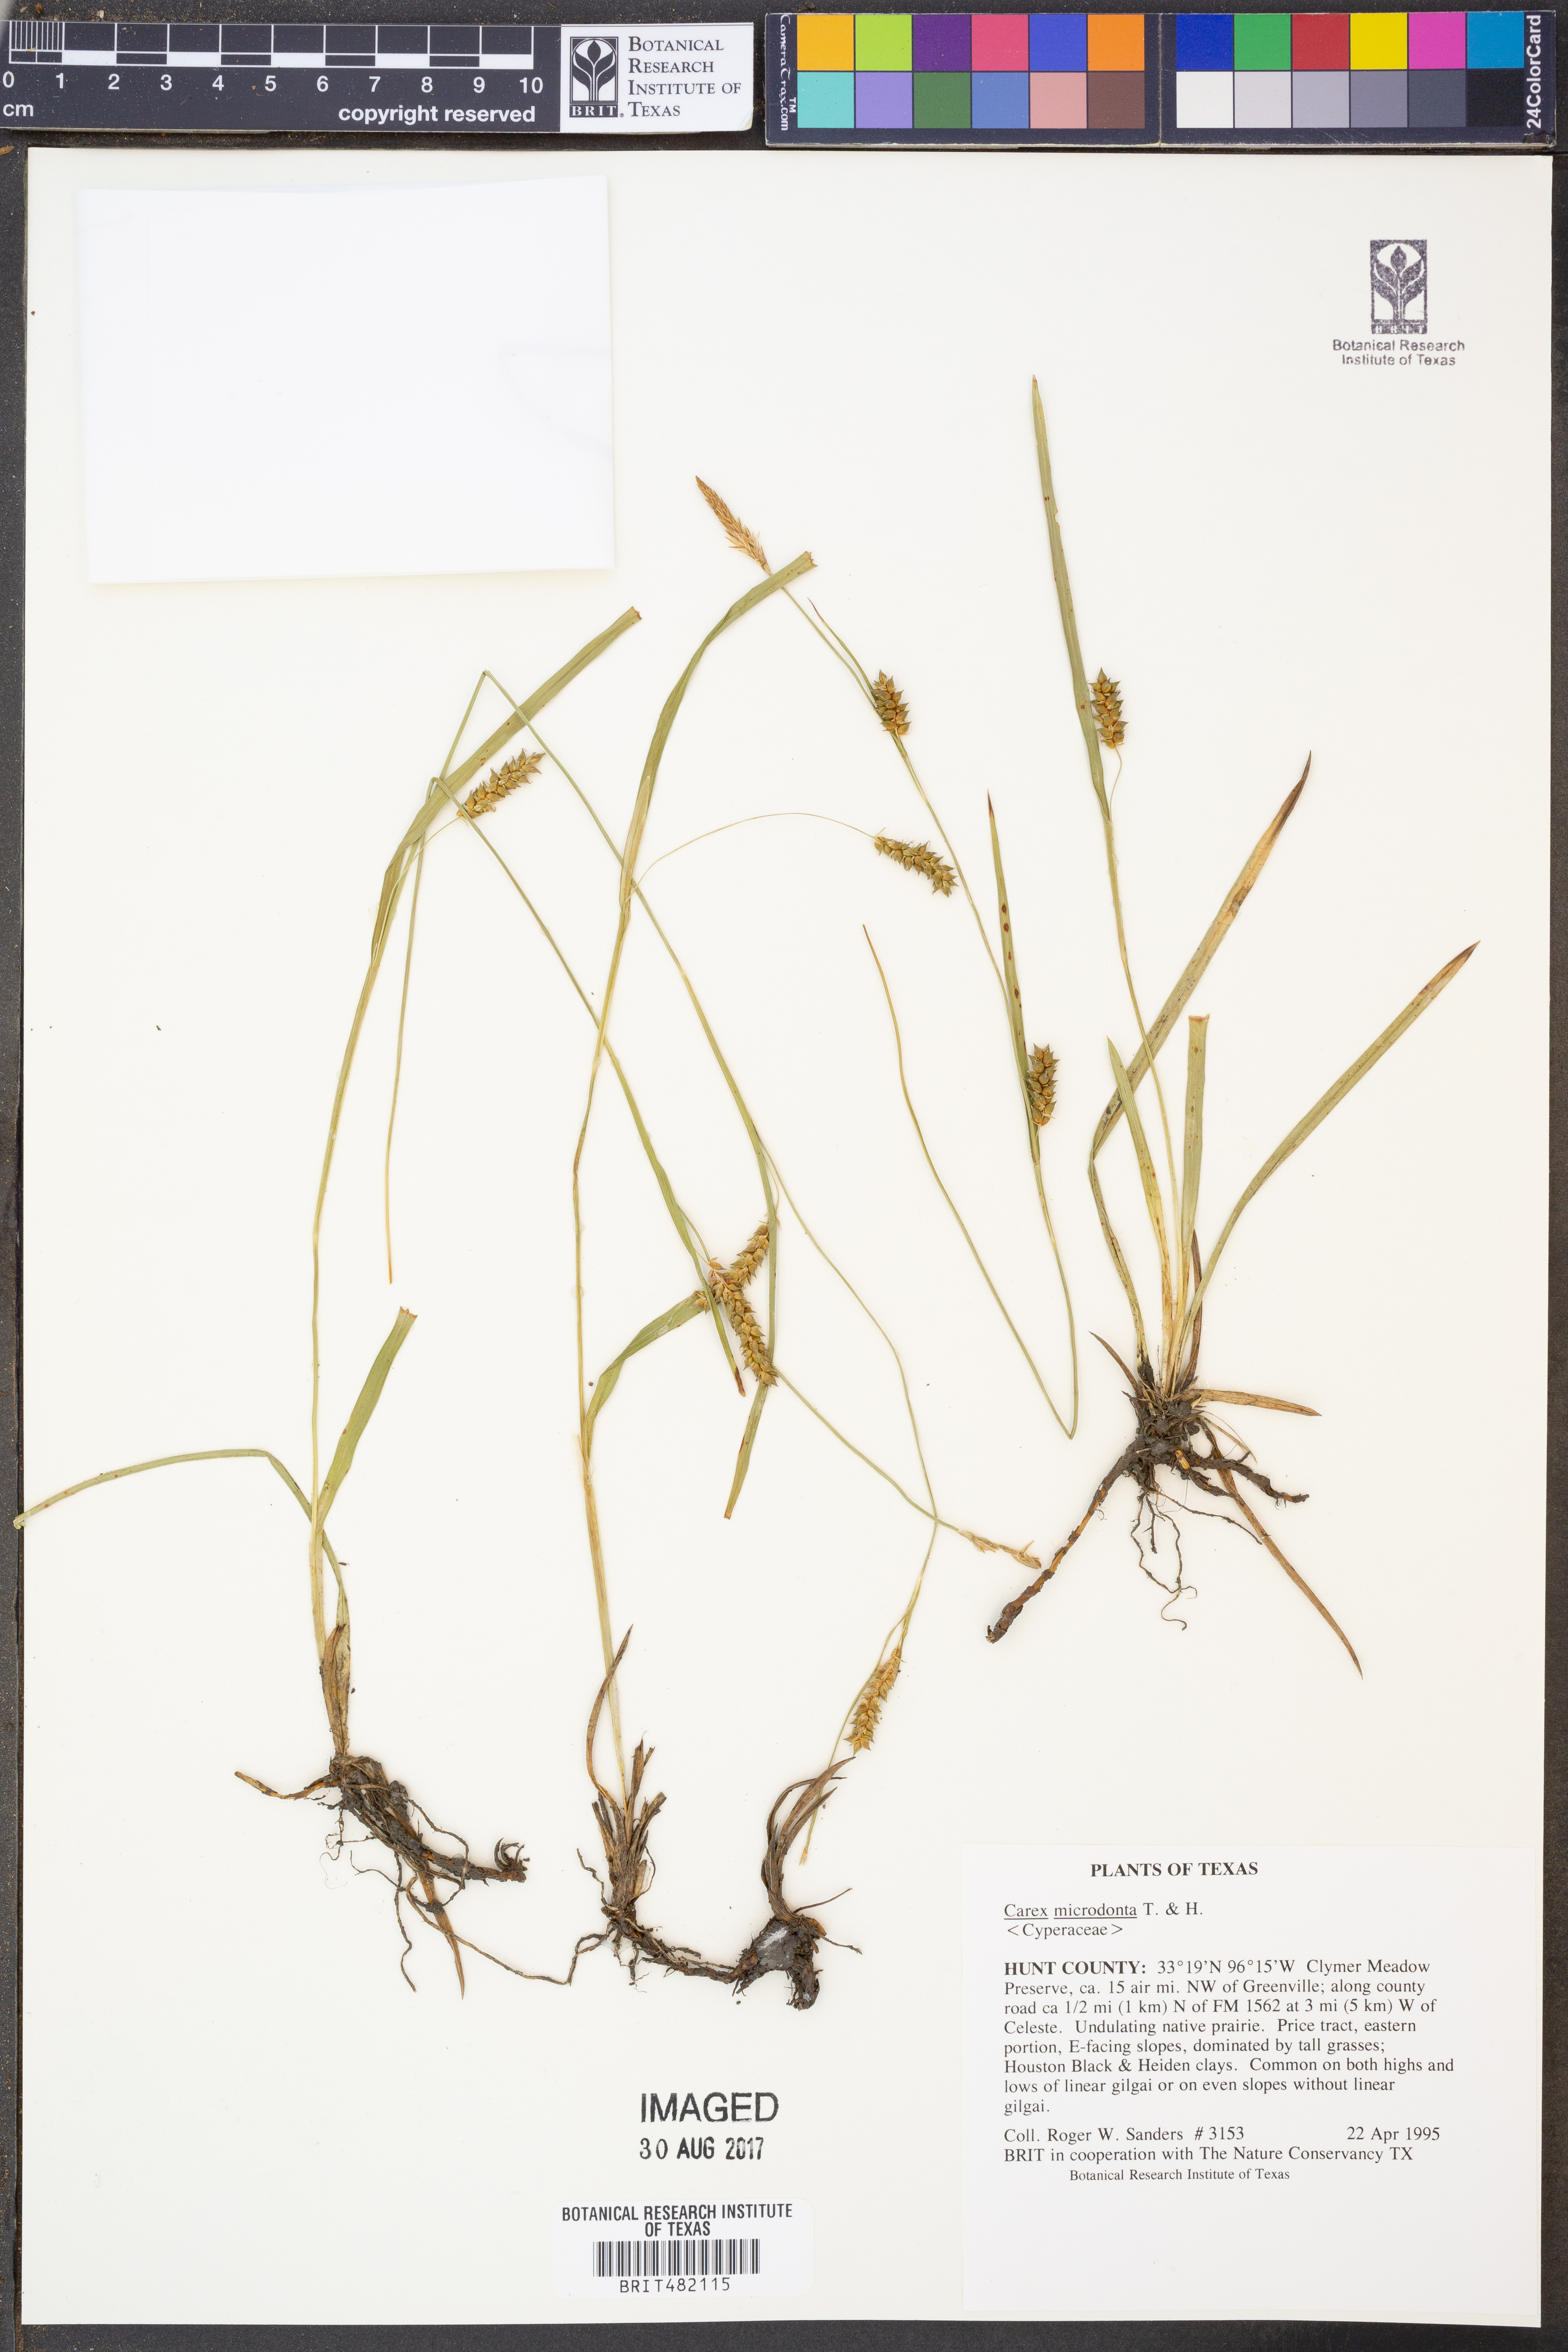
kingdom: Plantae
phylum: Tracheophyta
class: Liliopsida
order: Poales
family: Cyperaceae
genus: Carex
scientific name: Carex microdonta
